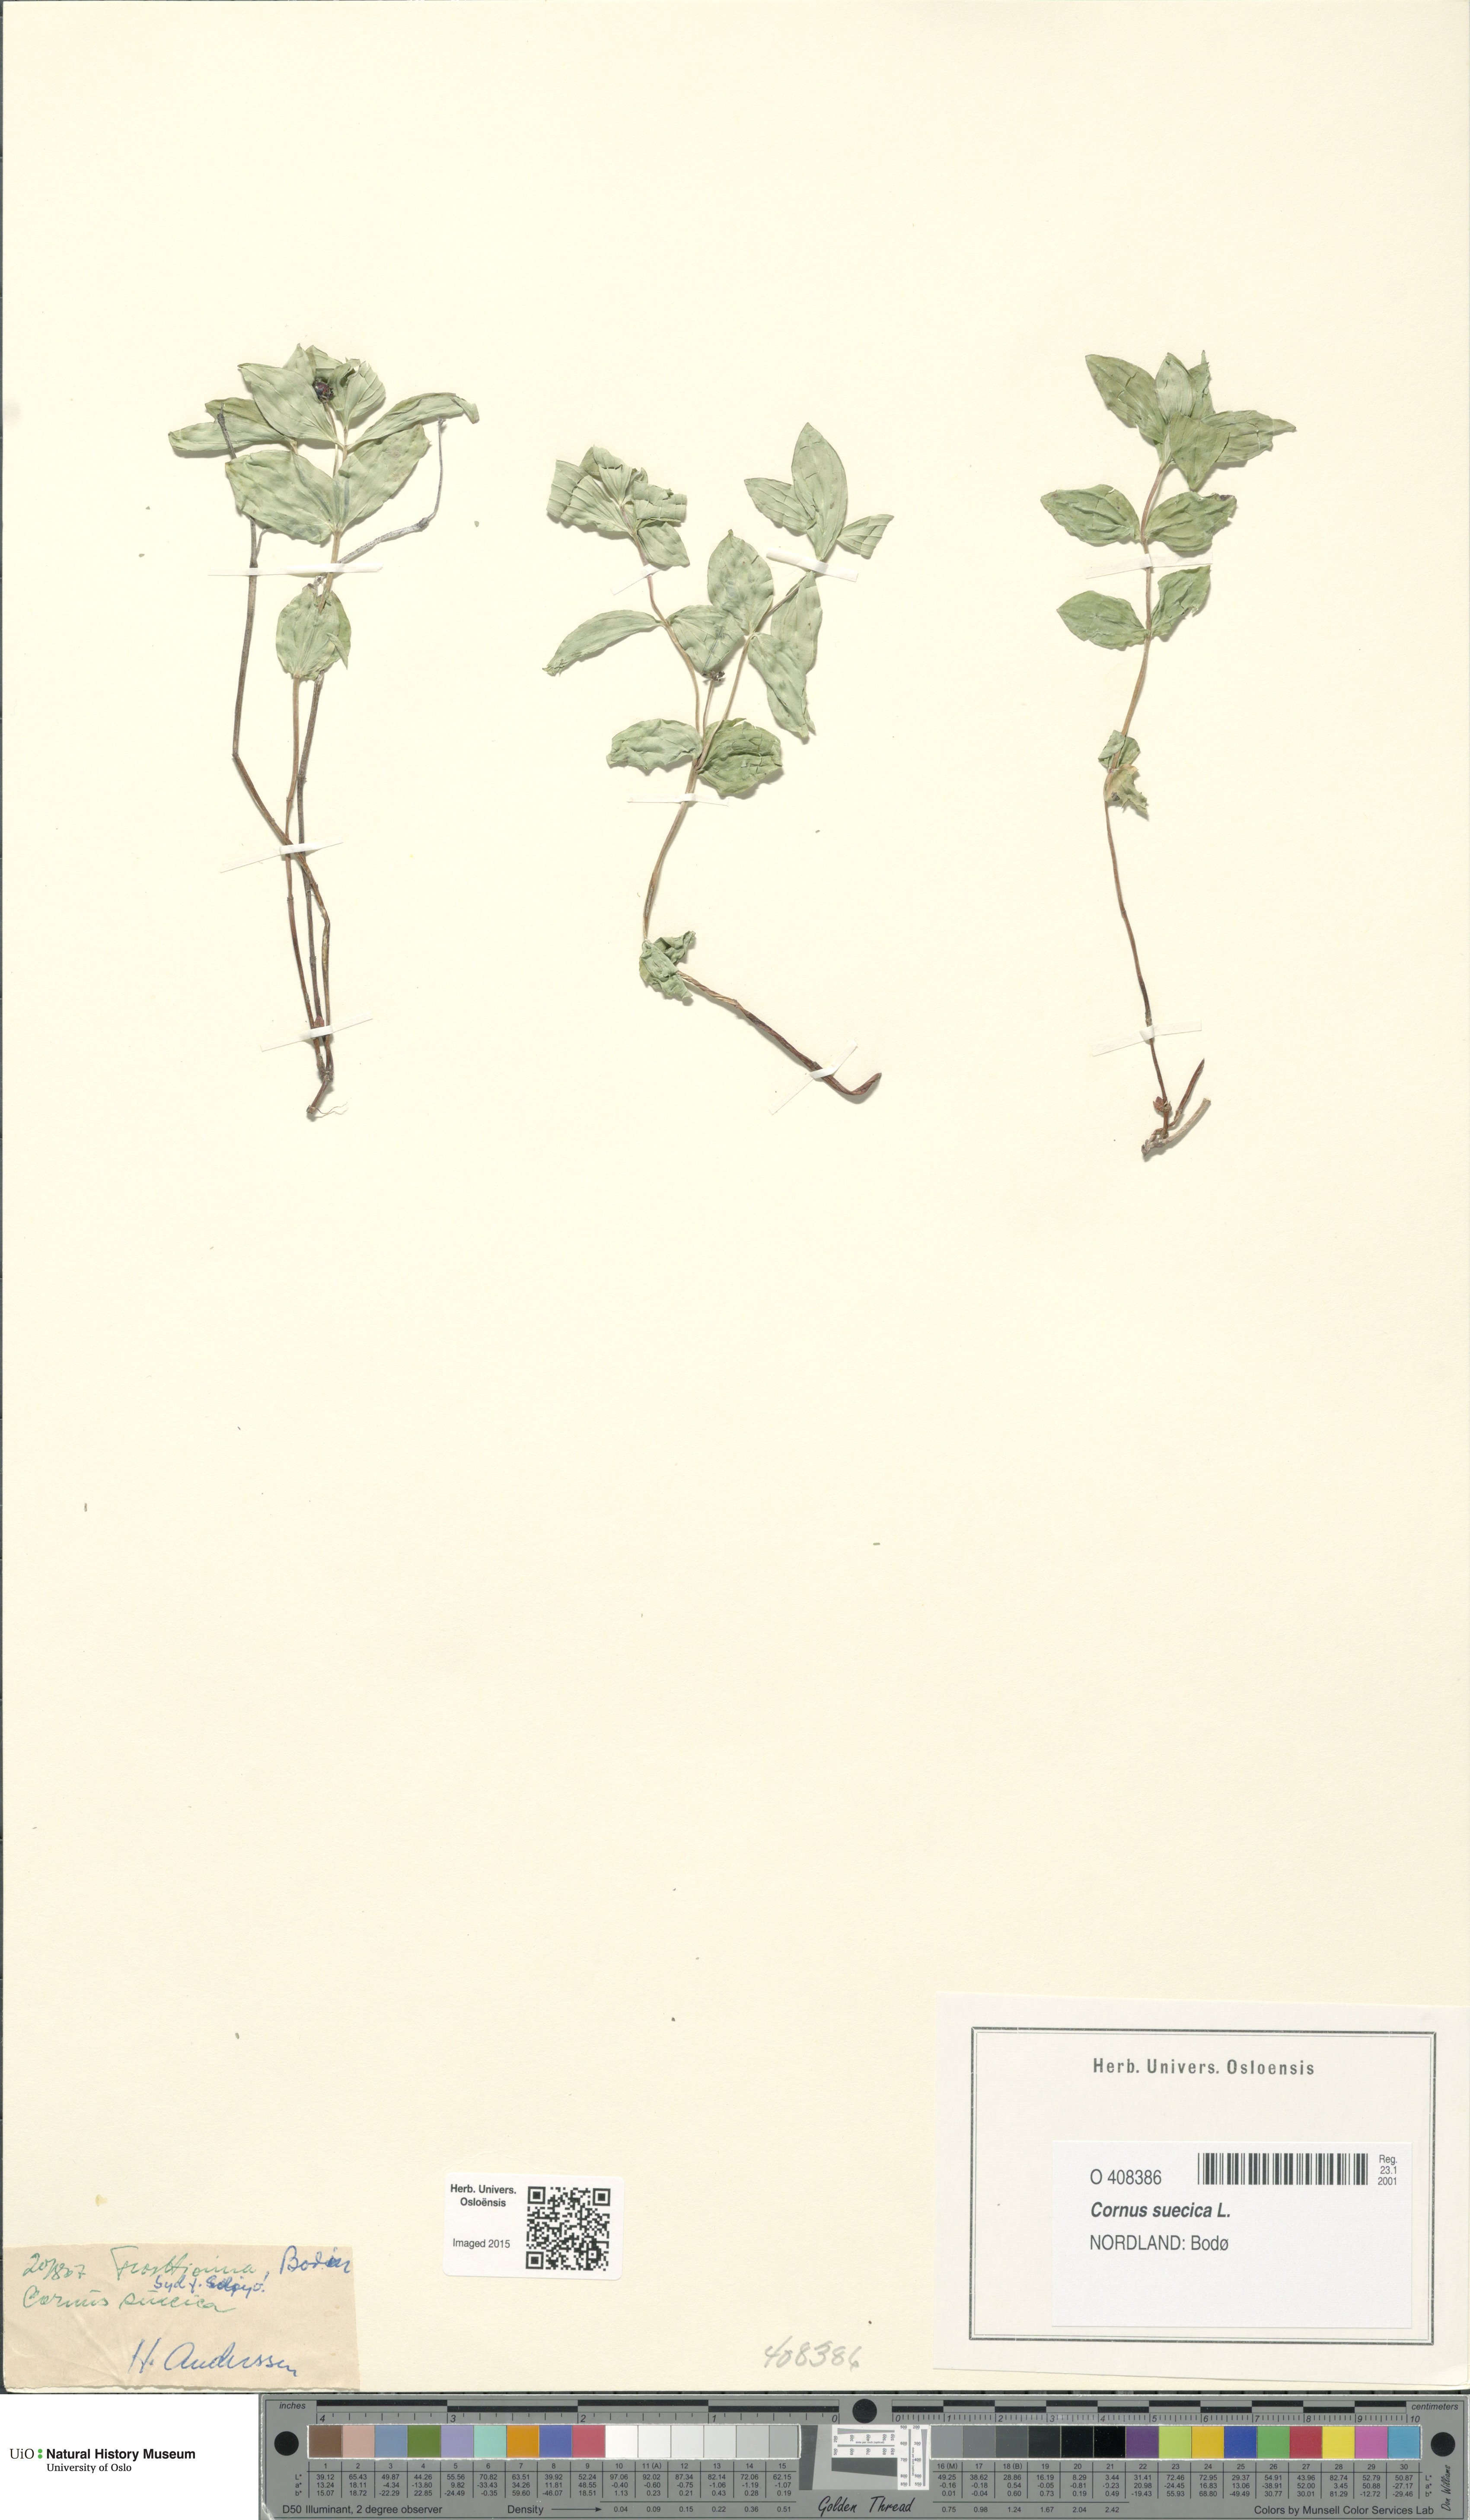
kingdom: Plantae
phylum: Tracheophyta
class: Magnoliopsida
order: Cornales
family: Cornaceae
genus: Cornus
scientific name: Cornus suecica
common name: Dwarf cornel
